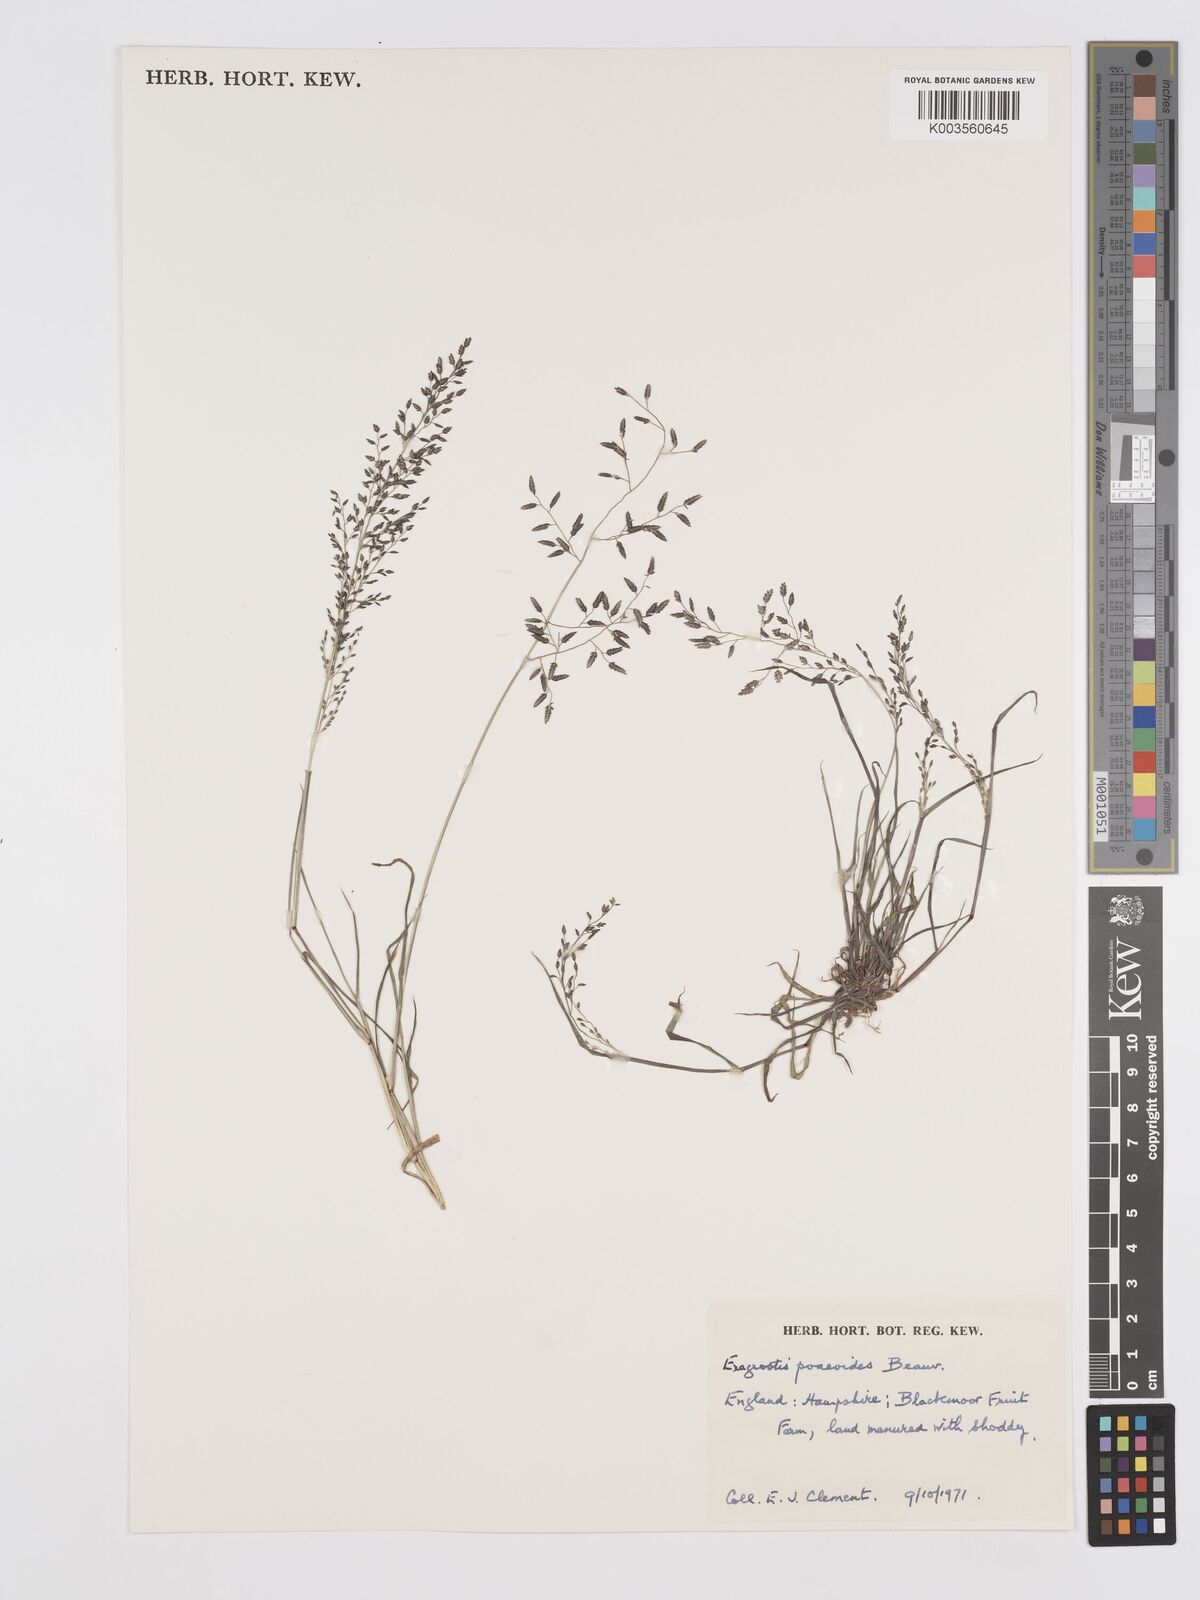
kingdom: Plantae
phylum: Tracheophyta
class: Liliopsida
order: Poales
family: Poaceae
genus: Eragrostis
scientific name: Eragrostis minor
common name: Small love-grass
